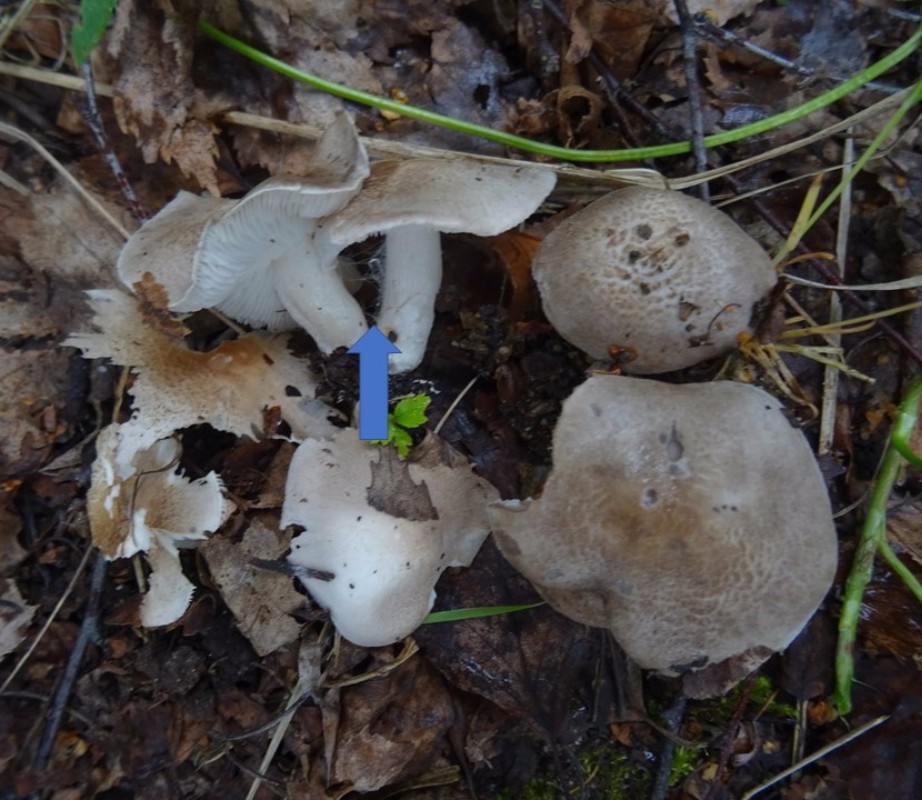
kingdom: Fungi
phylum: Basidiomycota
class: Agaricomycetes
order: Agaricales
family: Tricholomataceae
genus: Tricholoma
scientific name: Tricholoma argyraceum
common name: slør-ridderhat
